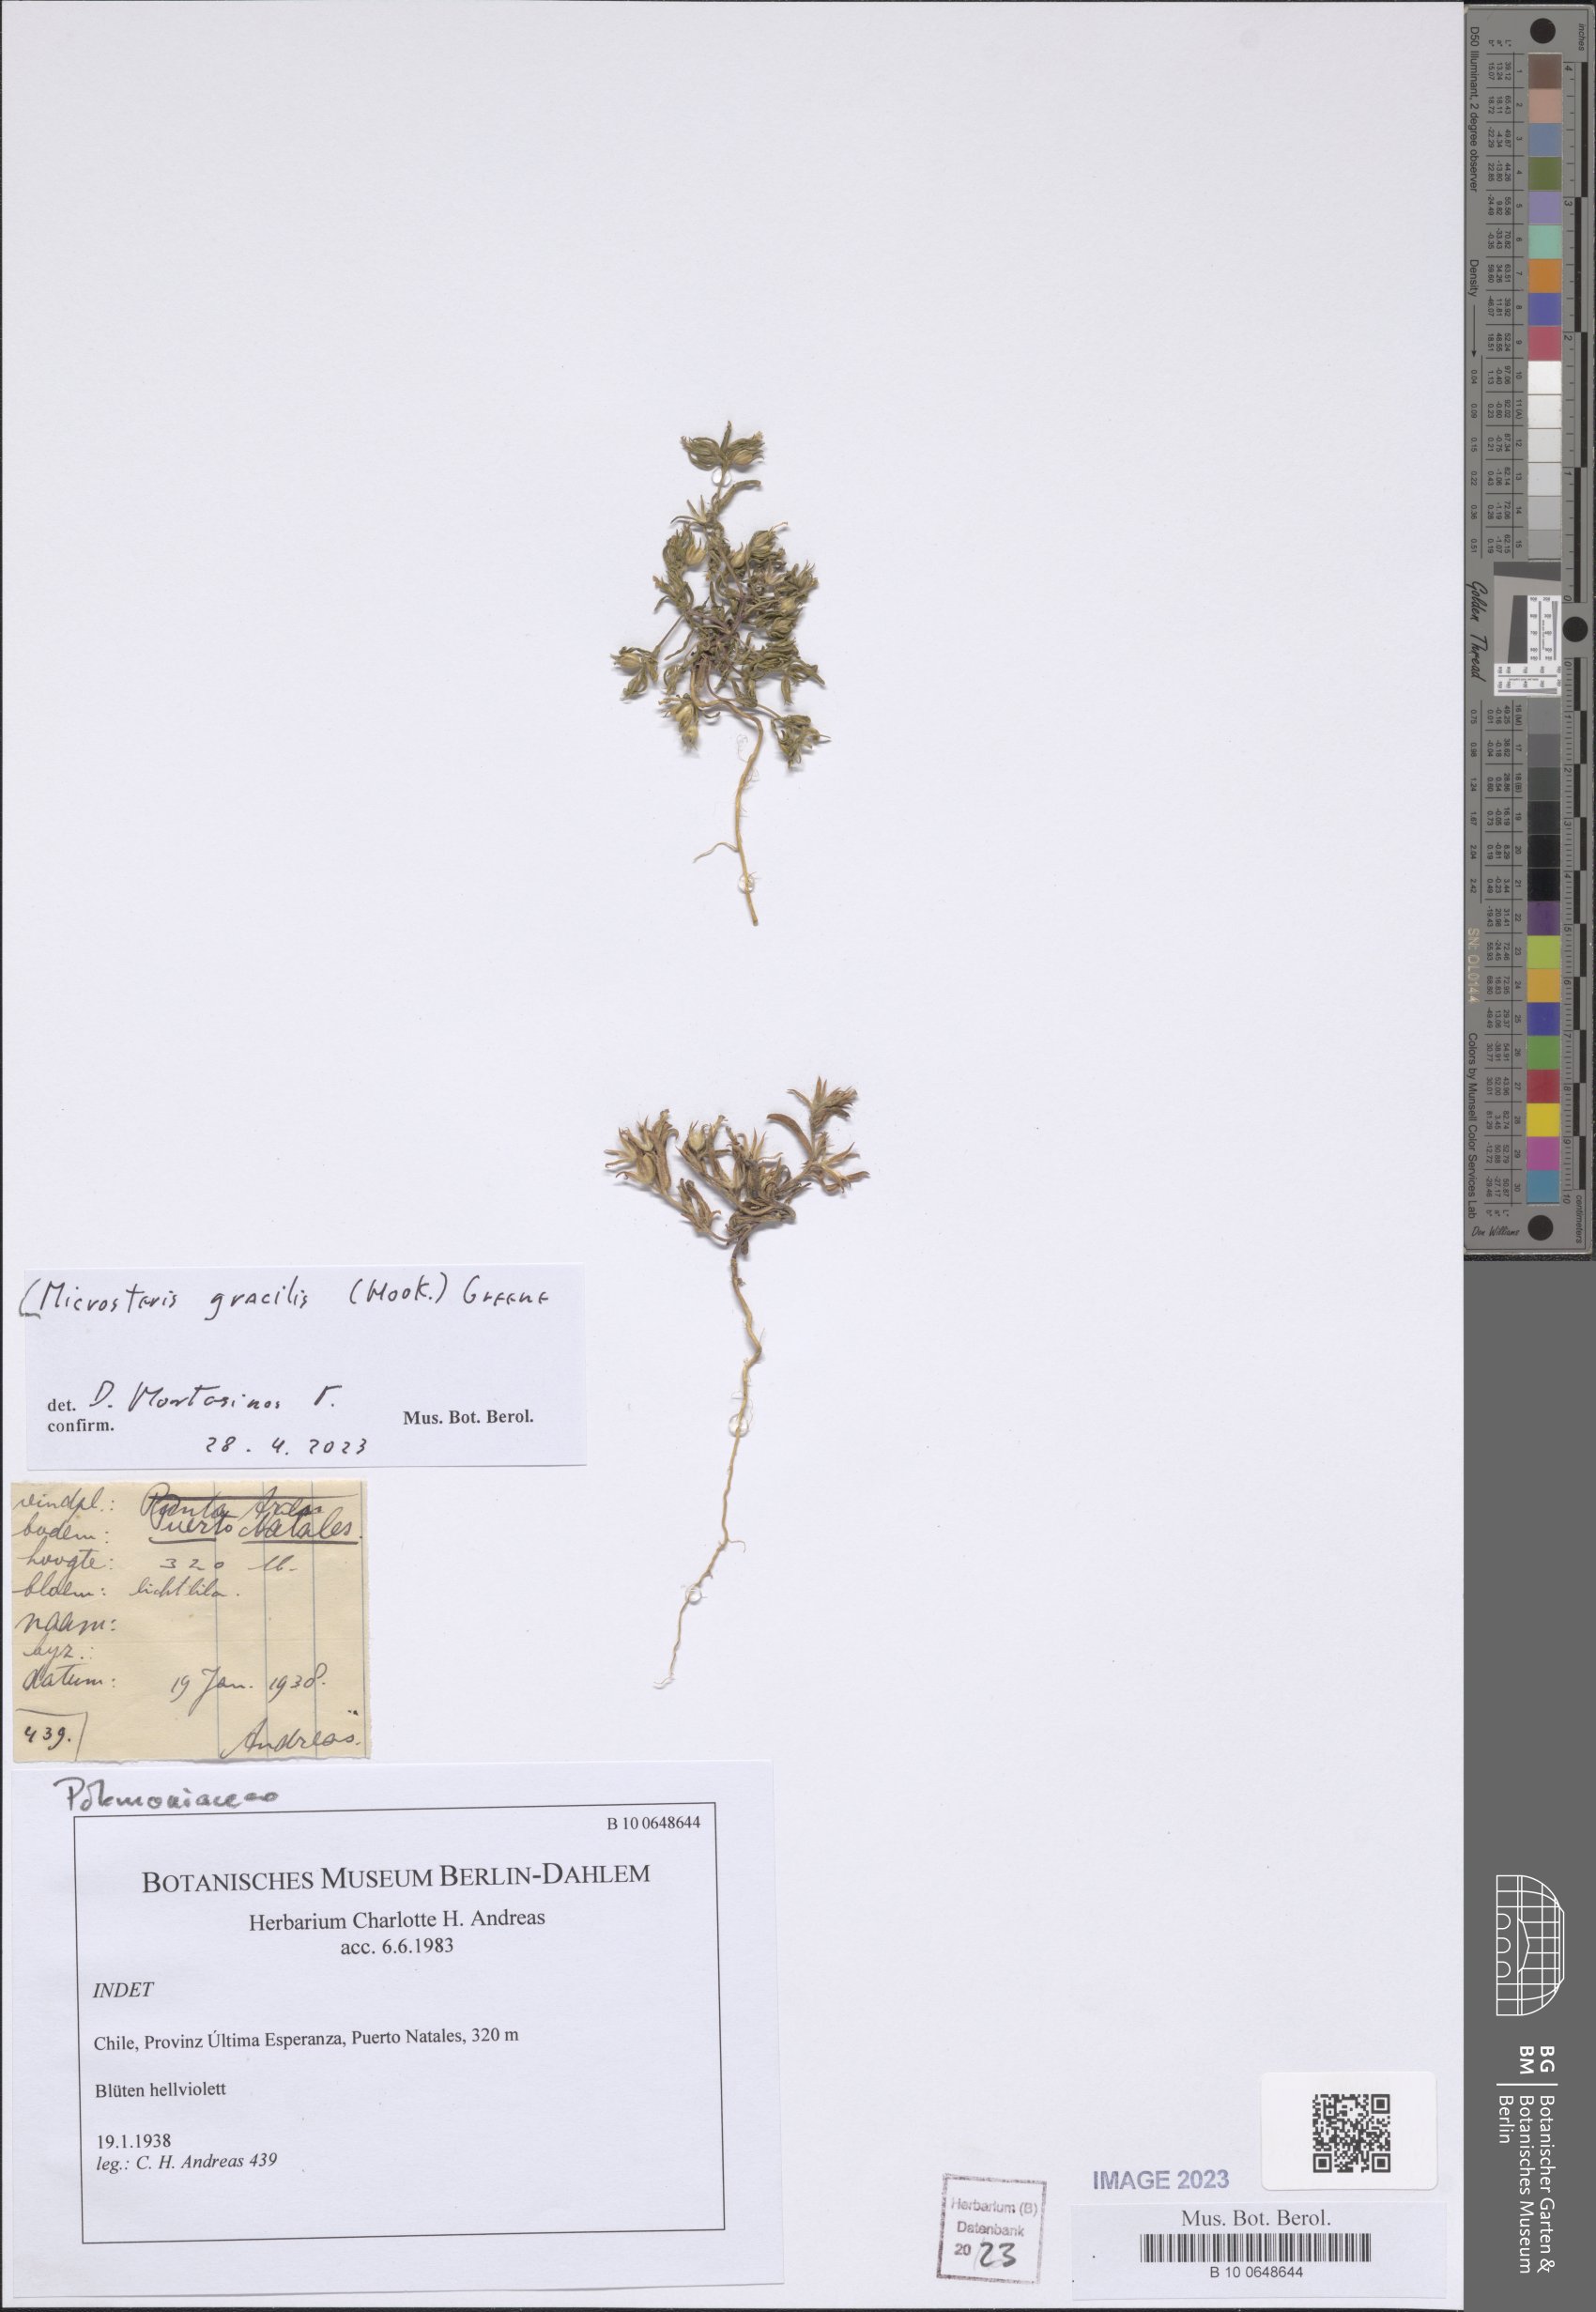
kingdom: Plantae
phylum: Tracheophyta
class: Magnoliopsida
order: Ericales
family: Polemoniaceae
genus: Phlox
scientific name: Phlox gracilis
